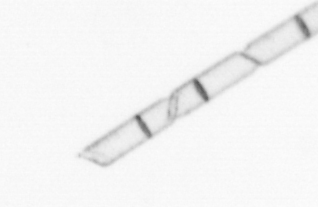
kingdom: Chromista
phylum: Ochrophyta
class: Bacillariophyceae
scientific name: Bacillariophyceae
